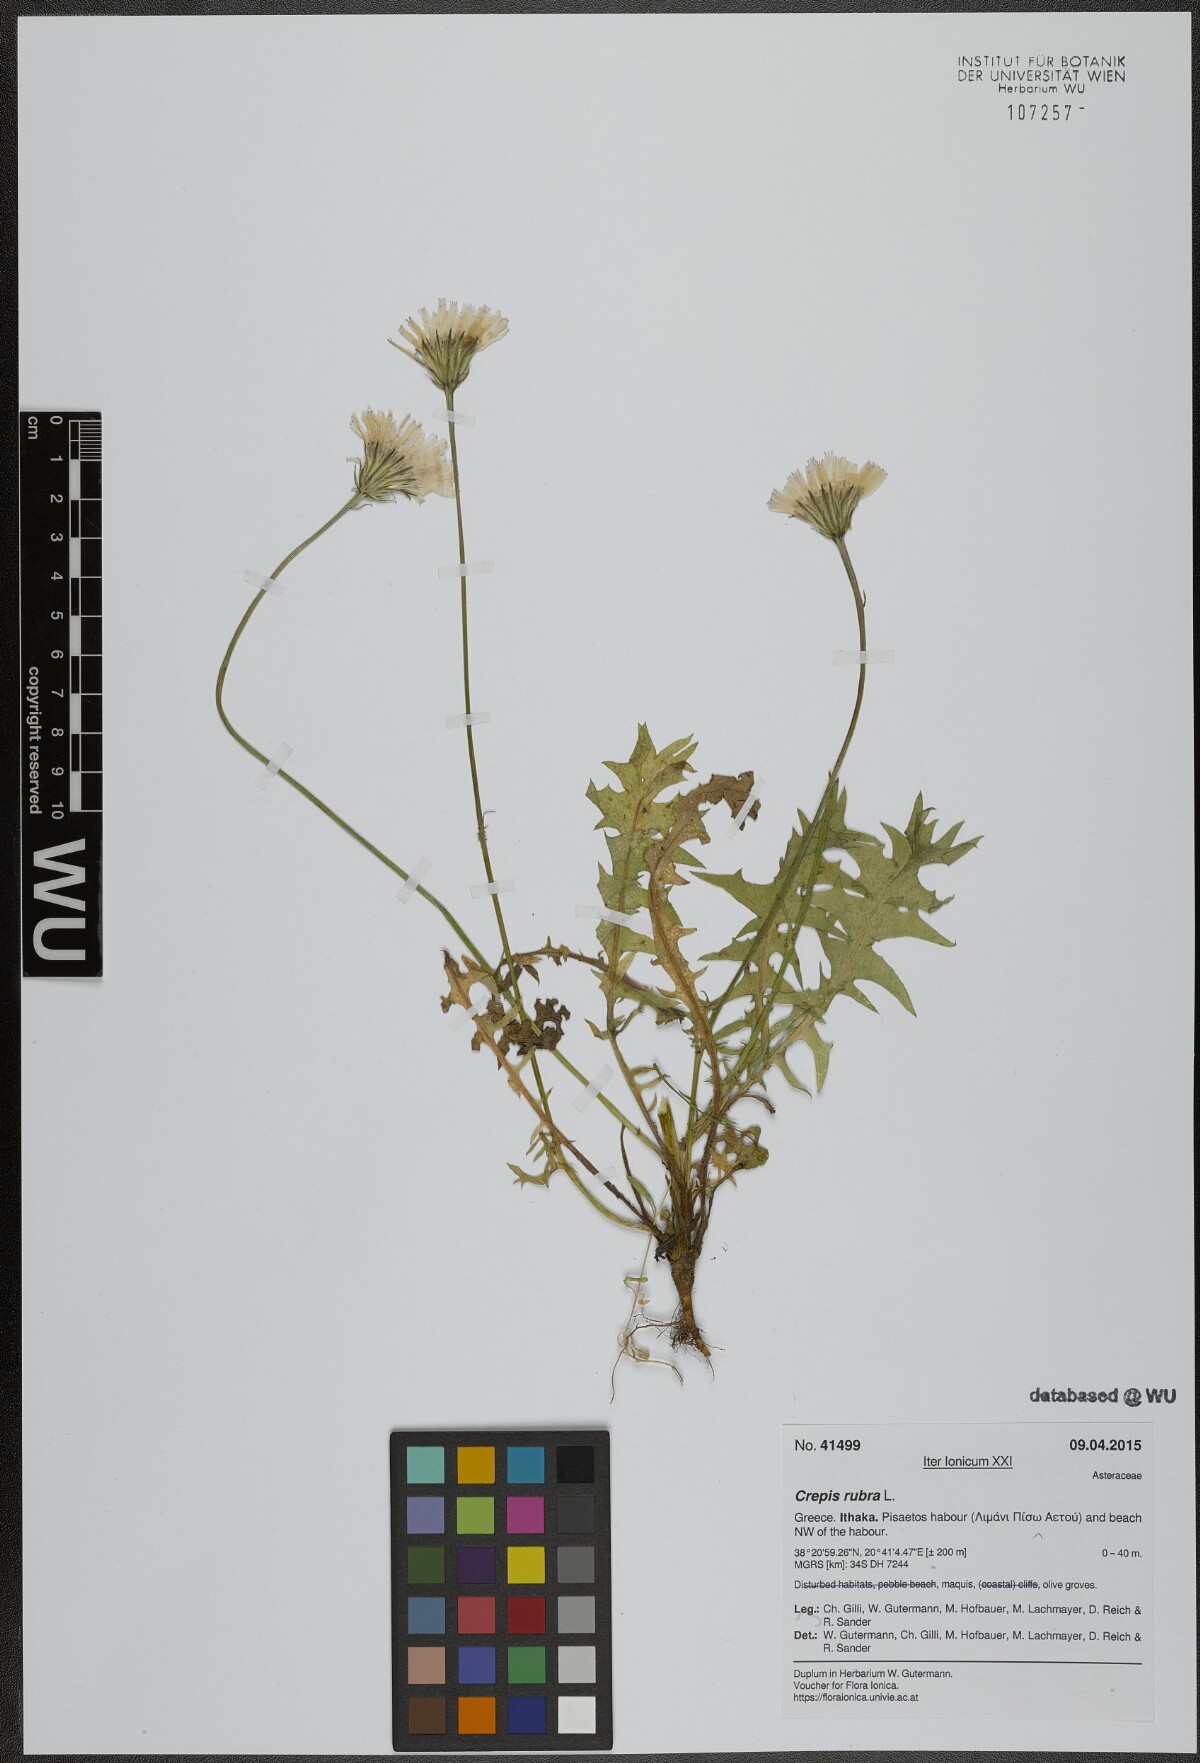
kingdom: Plantae
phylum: Tracheophyta
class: Magnoliopsida
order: Asterales
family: Asteraceae
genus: Crepis
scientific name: Crepis rubra
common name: Pink hawk's-beard
